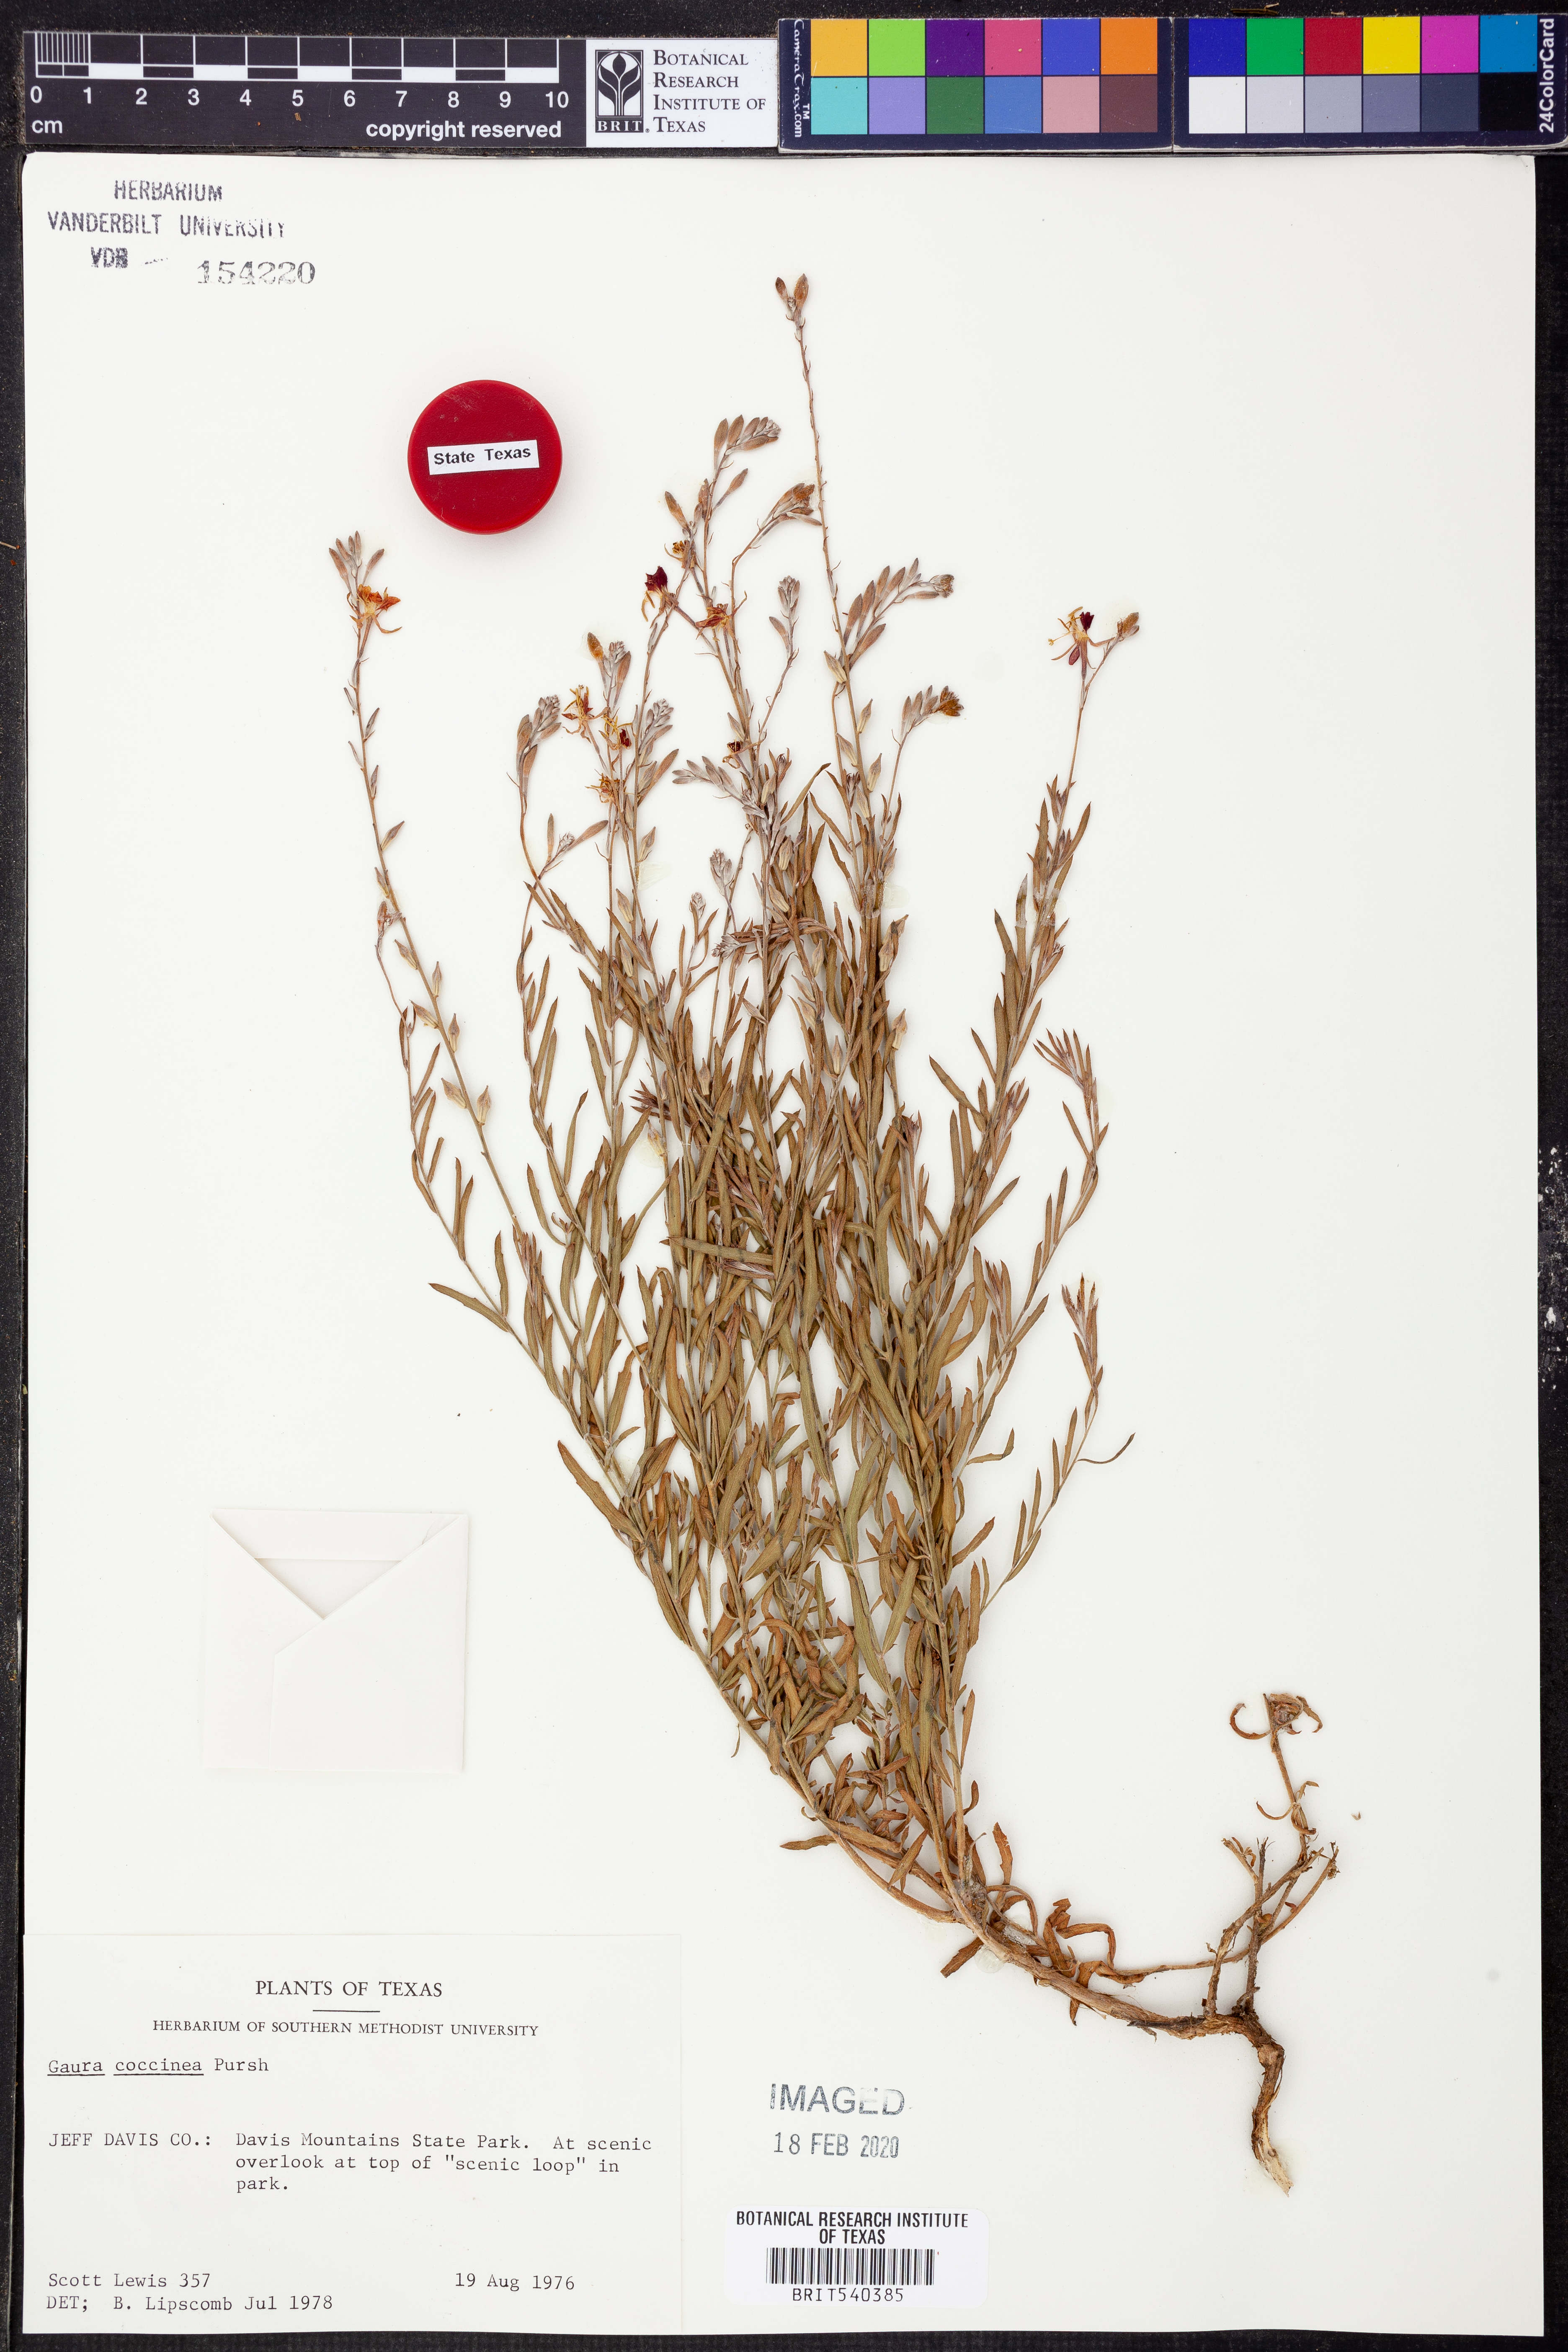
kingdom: Plantae
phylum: Tracheophyta
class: Magnoliopsida
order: Myrtales
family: Onagraceae
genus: Oenothera
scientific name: Oenothera suffrutescens
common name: Scarlet beeblossom
